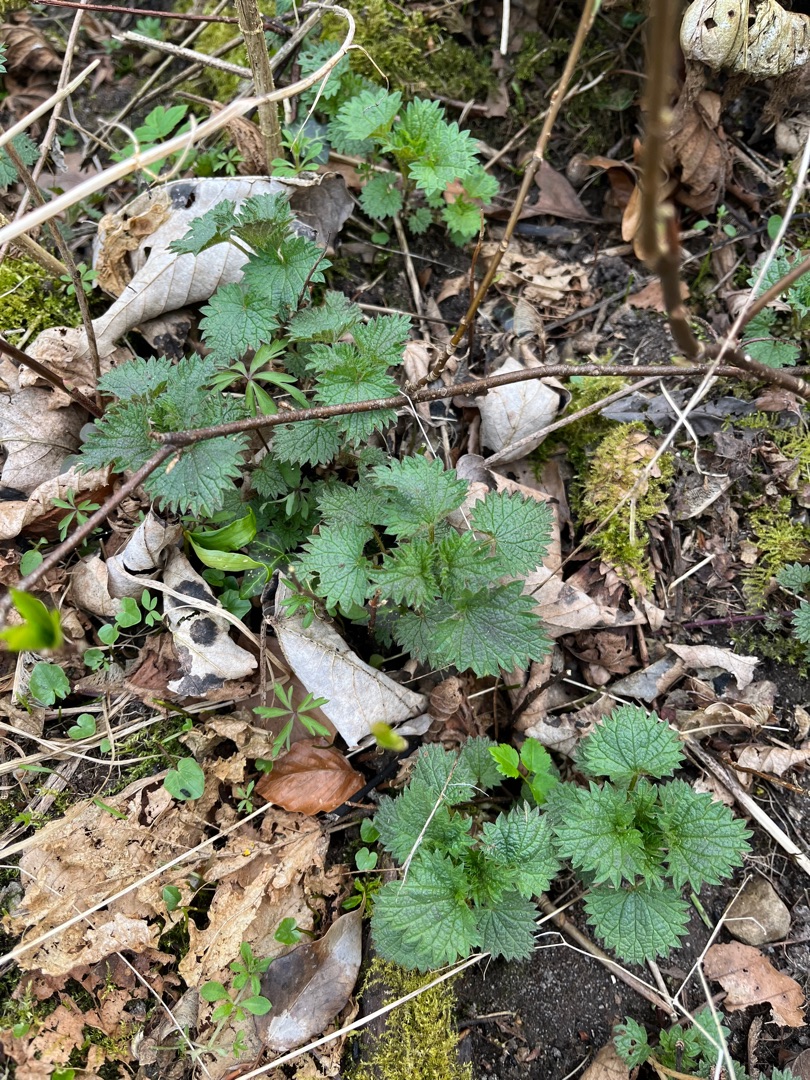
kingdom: Plantae
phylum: Tracheophyta
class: Magnoliopsida
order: Rosales
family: Urticaceae
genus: Urtica
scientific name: Urtica dioica
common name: Stor nælde
